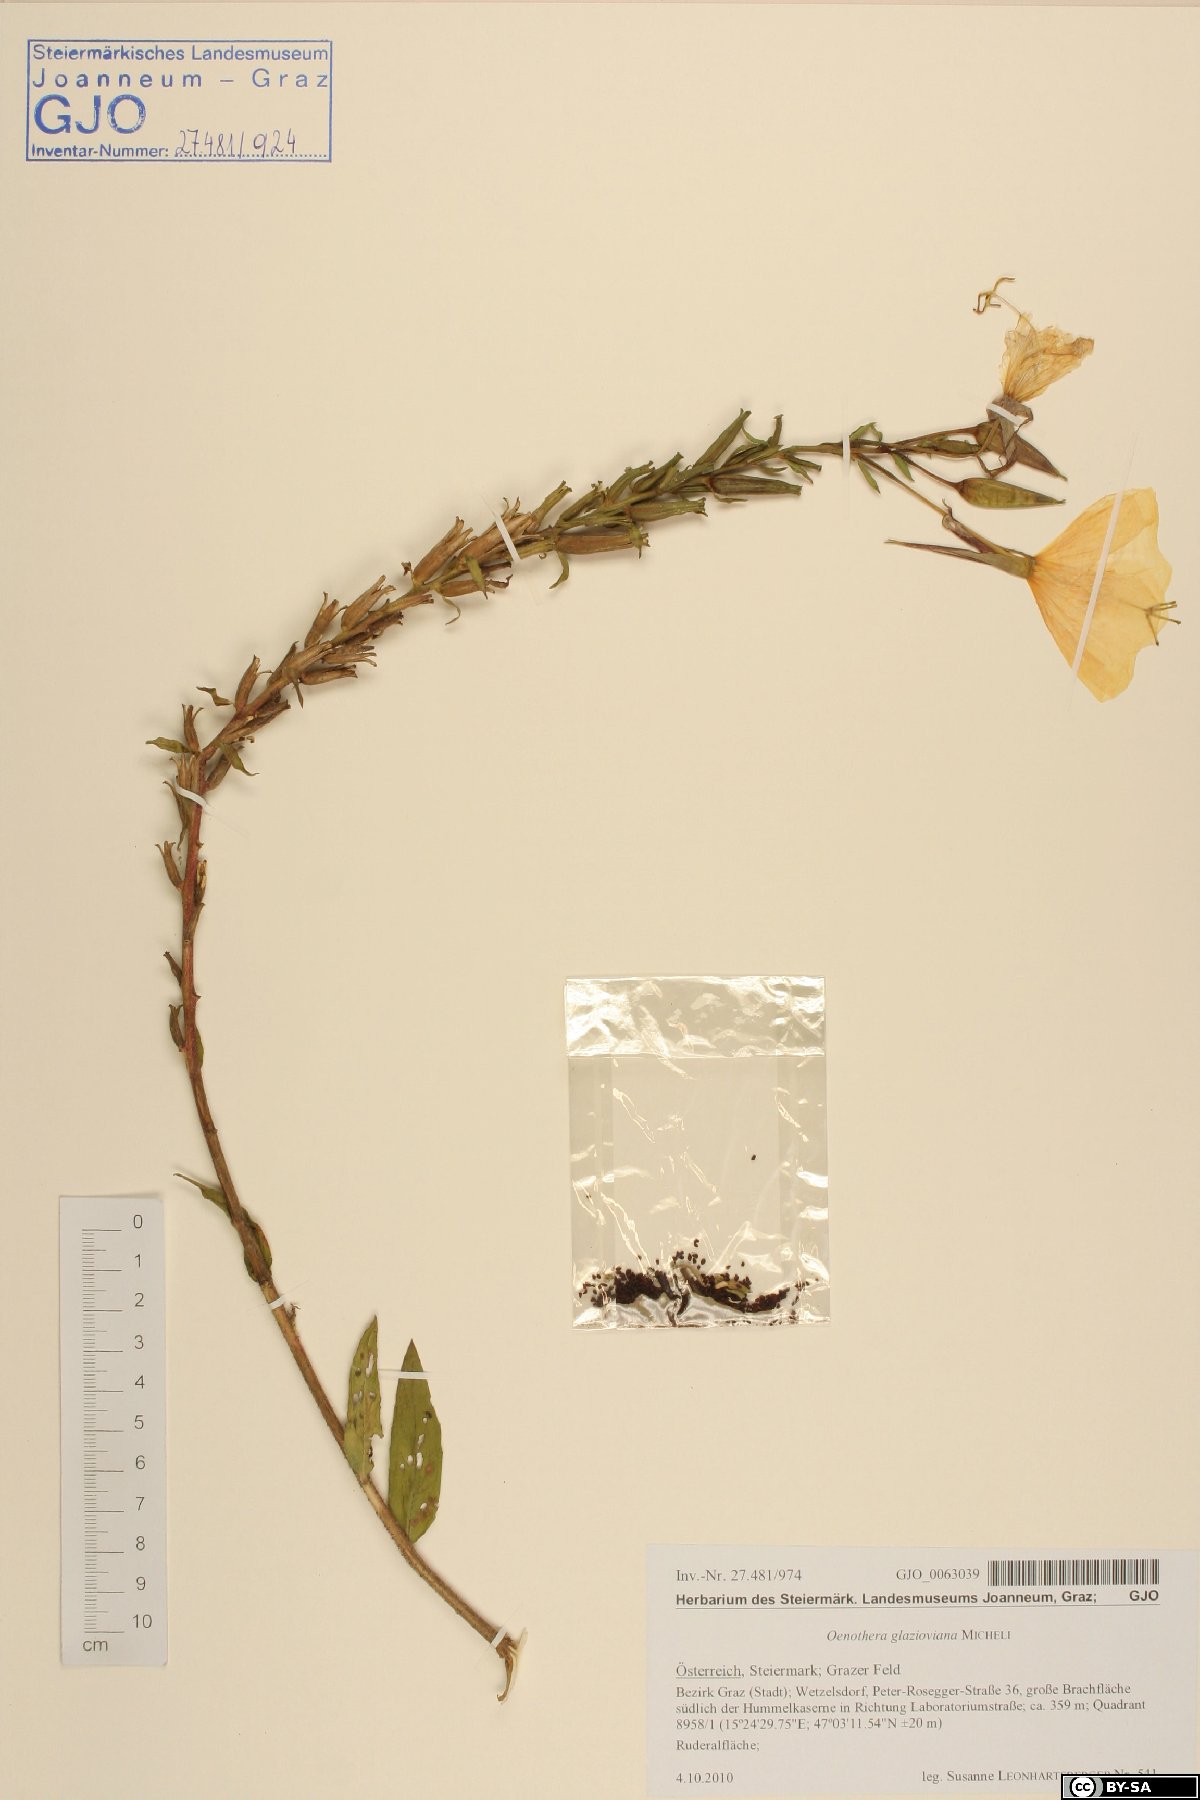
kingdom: Plantae
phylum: Tracheophyta
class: Magnoliopsida
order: Myrtales
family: Onagraceae
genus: Oenothera
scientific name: Oenothera glazioviana
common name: Large-flowered evening-primrose
